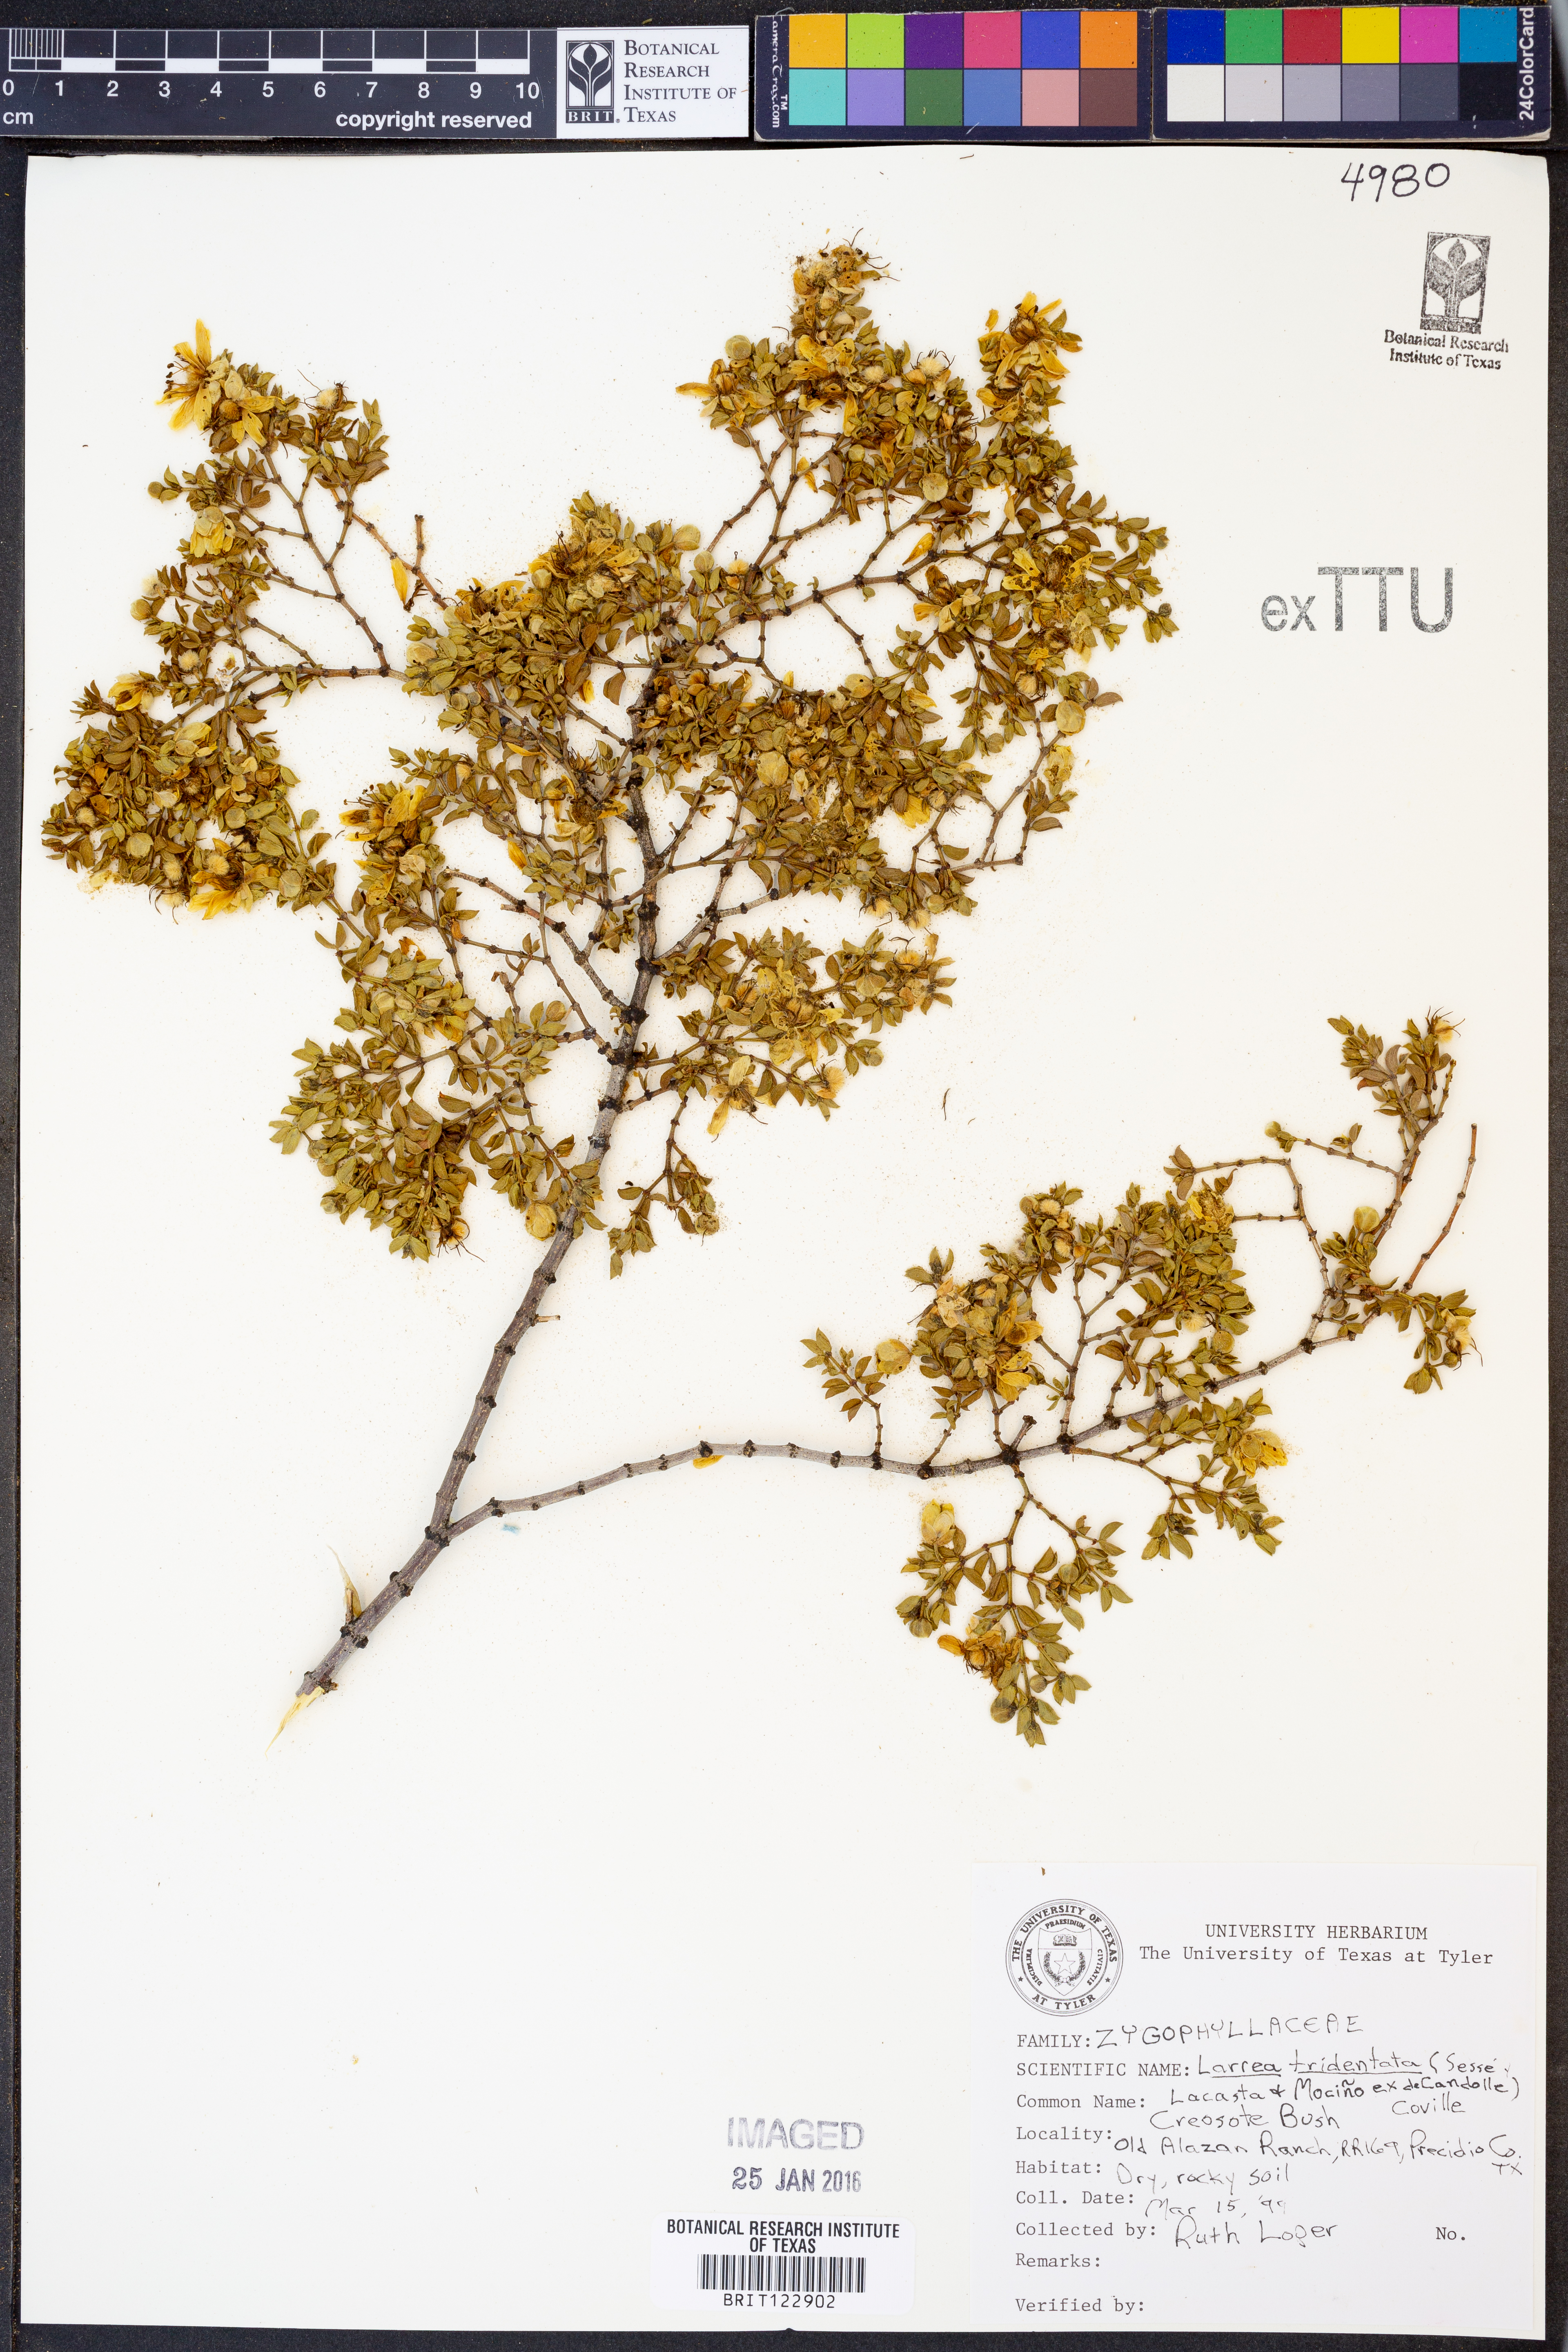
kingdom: Plantae
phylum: Tracheophyta
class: Magnoliopsida
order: Zygophyllales
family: Zygophyllaceae
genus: Larrea
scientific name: Larrea tridentata
